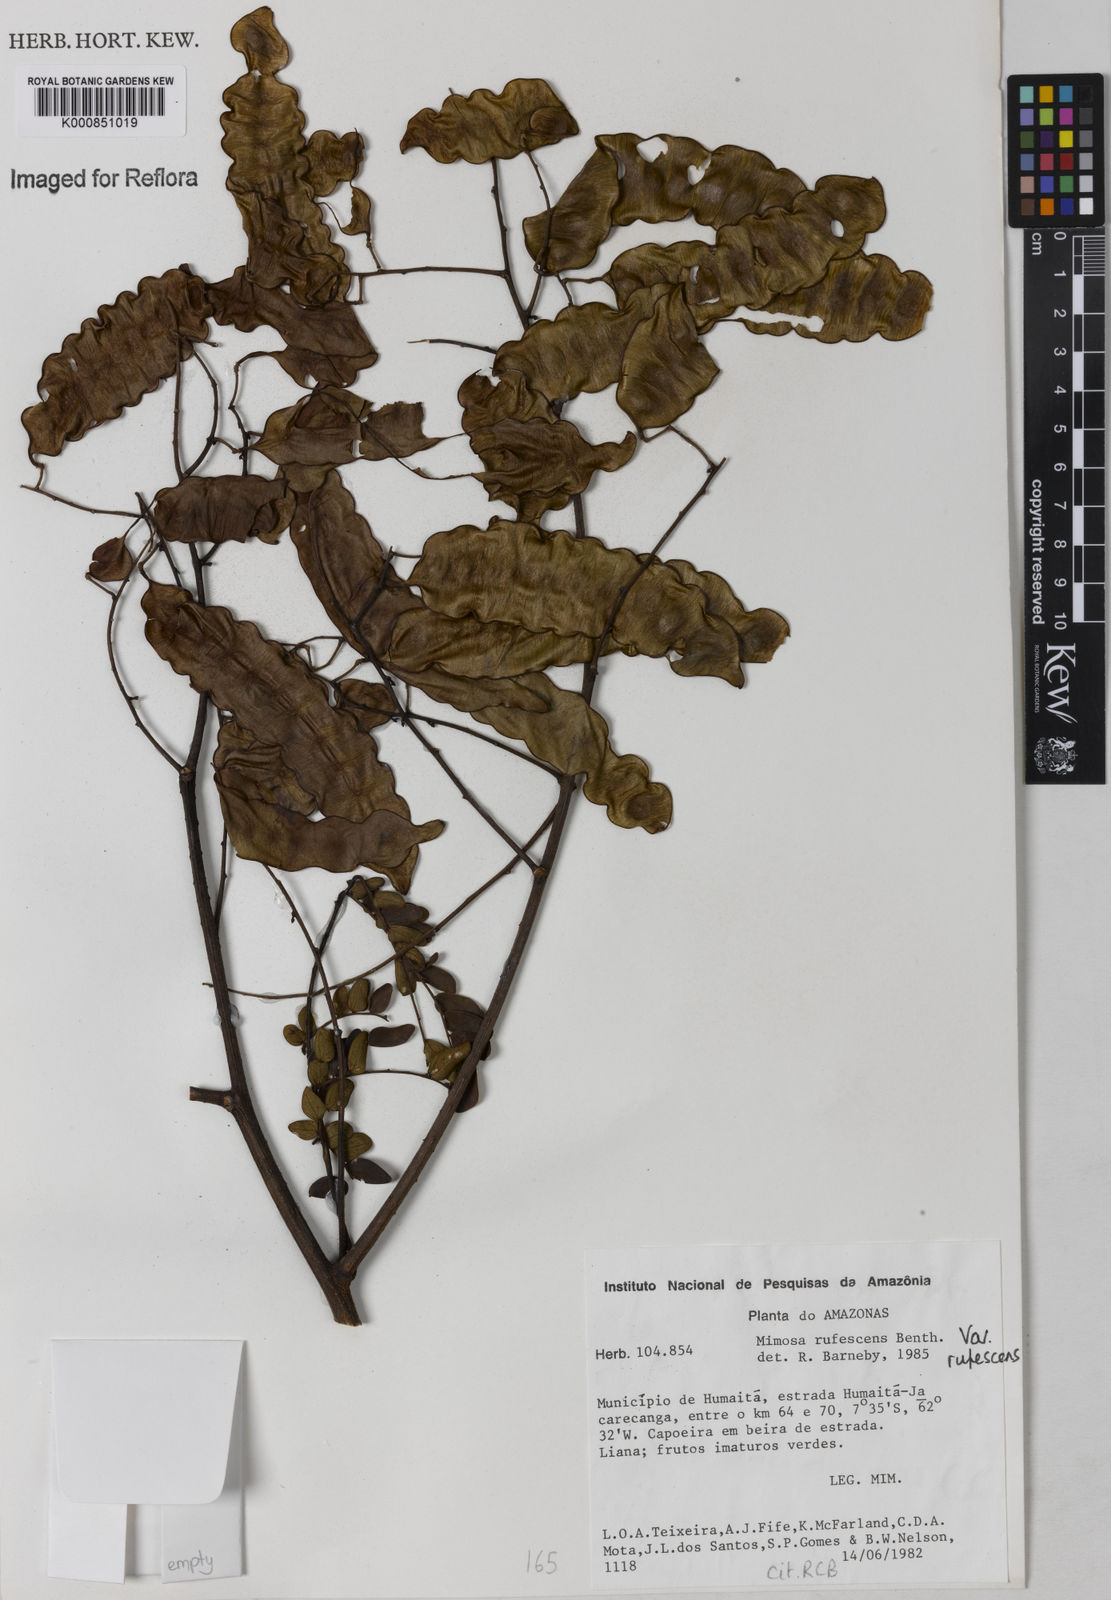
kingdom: Plantae
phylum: Tracheophyta
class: Magnoliopsida
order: Fabales
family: Fabaceae
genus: Mimosa
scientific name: Mimosa rufescens
